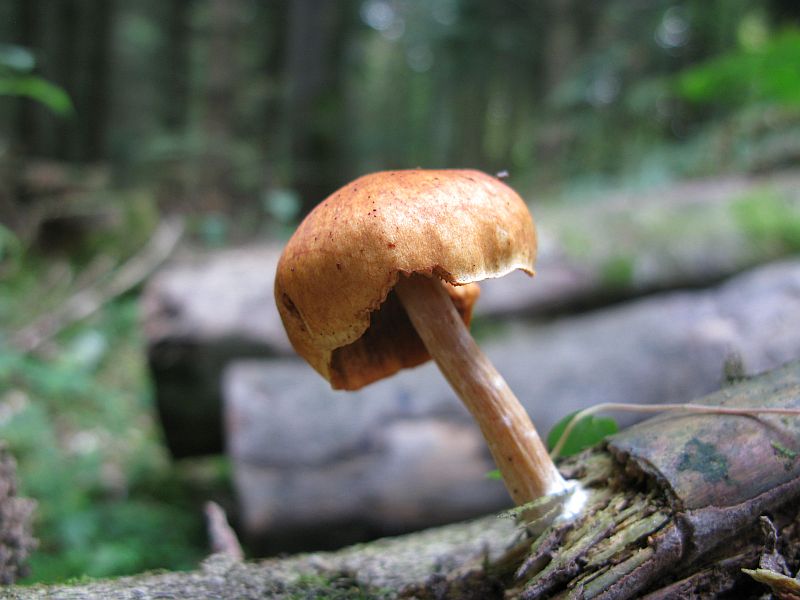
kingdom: Fungi
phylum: Basidiomycota
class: Agaricomycetes
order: Agaricales
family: Hymenogastraceae
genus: Gymnopilus
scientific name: Gymnopilus spectabilis
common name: fibret flammehat
